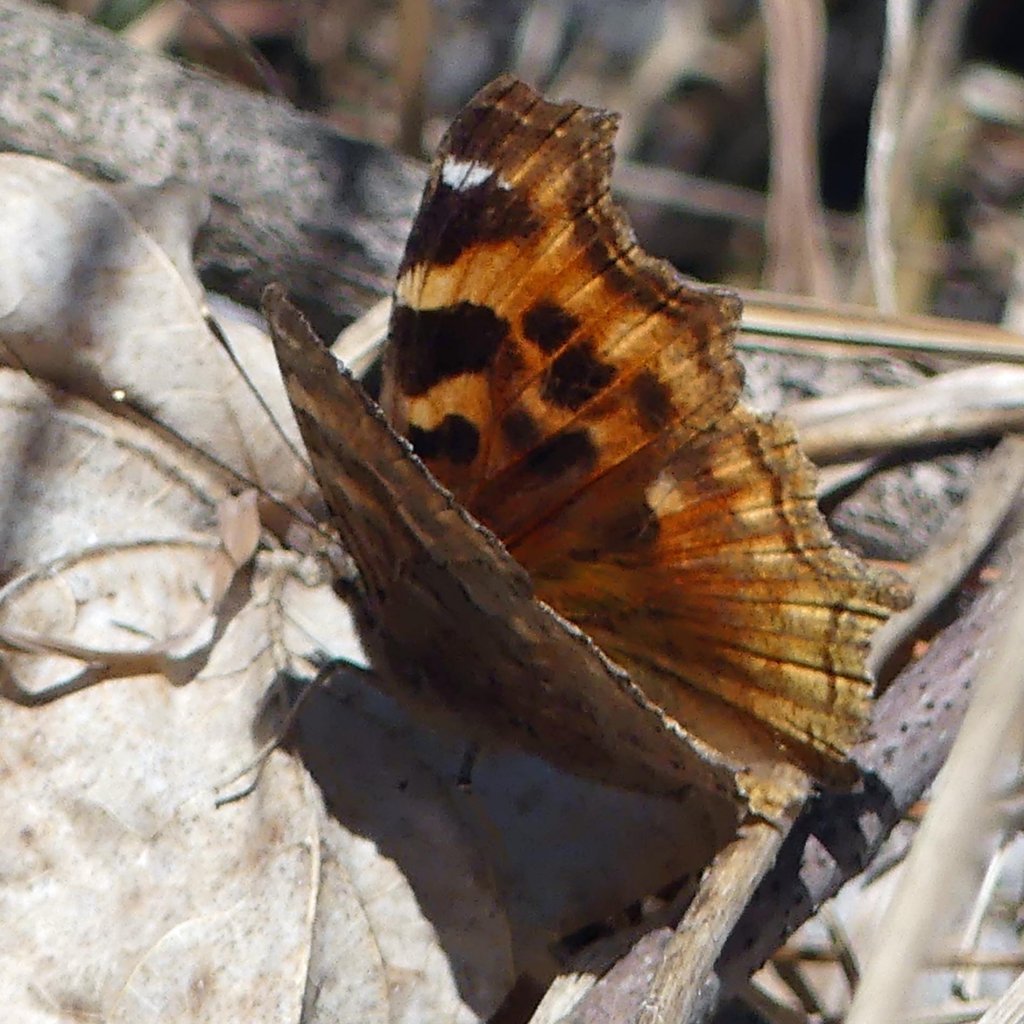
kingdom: Animalia
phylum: Arthropoda
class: Insecta
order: Lepidoptera
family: Nymphalidae
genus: Polygonia
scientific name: Polygonia vaualbum
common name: Compton Tortoiseshell
